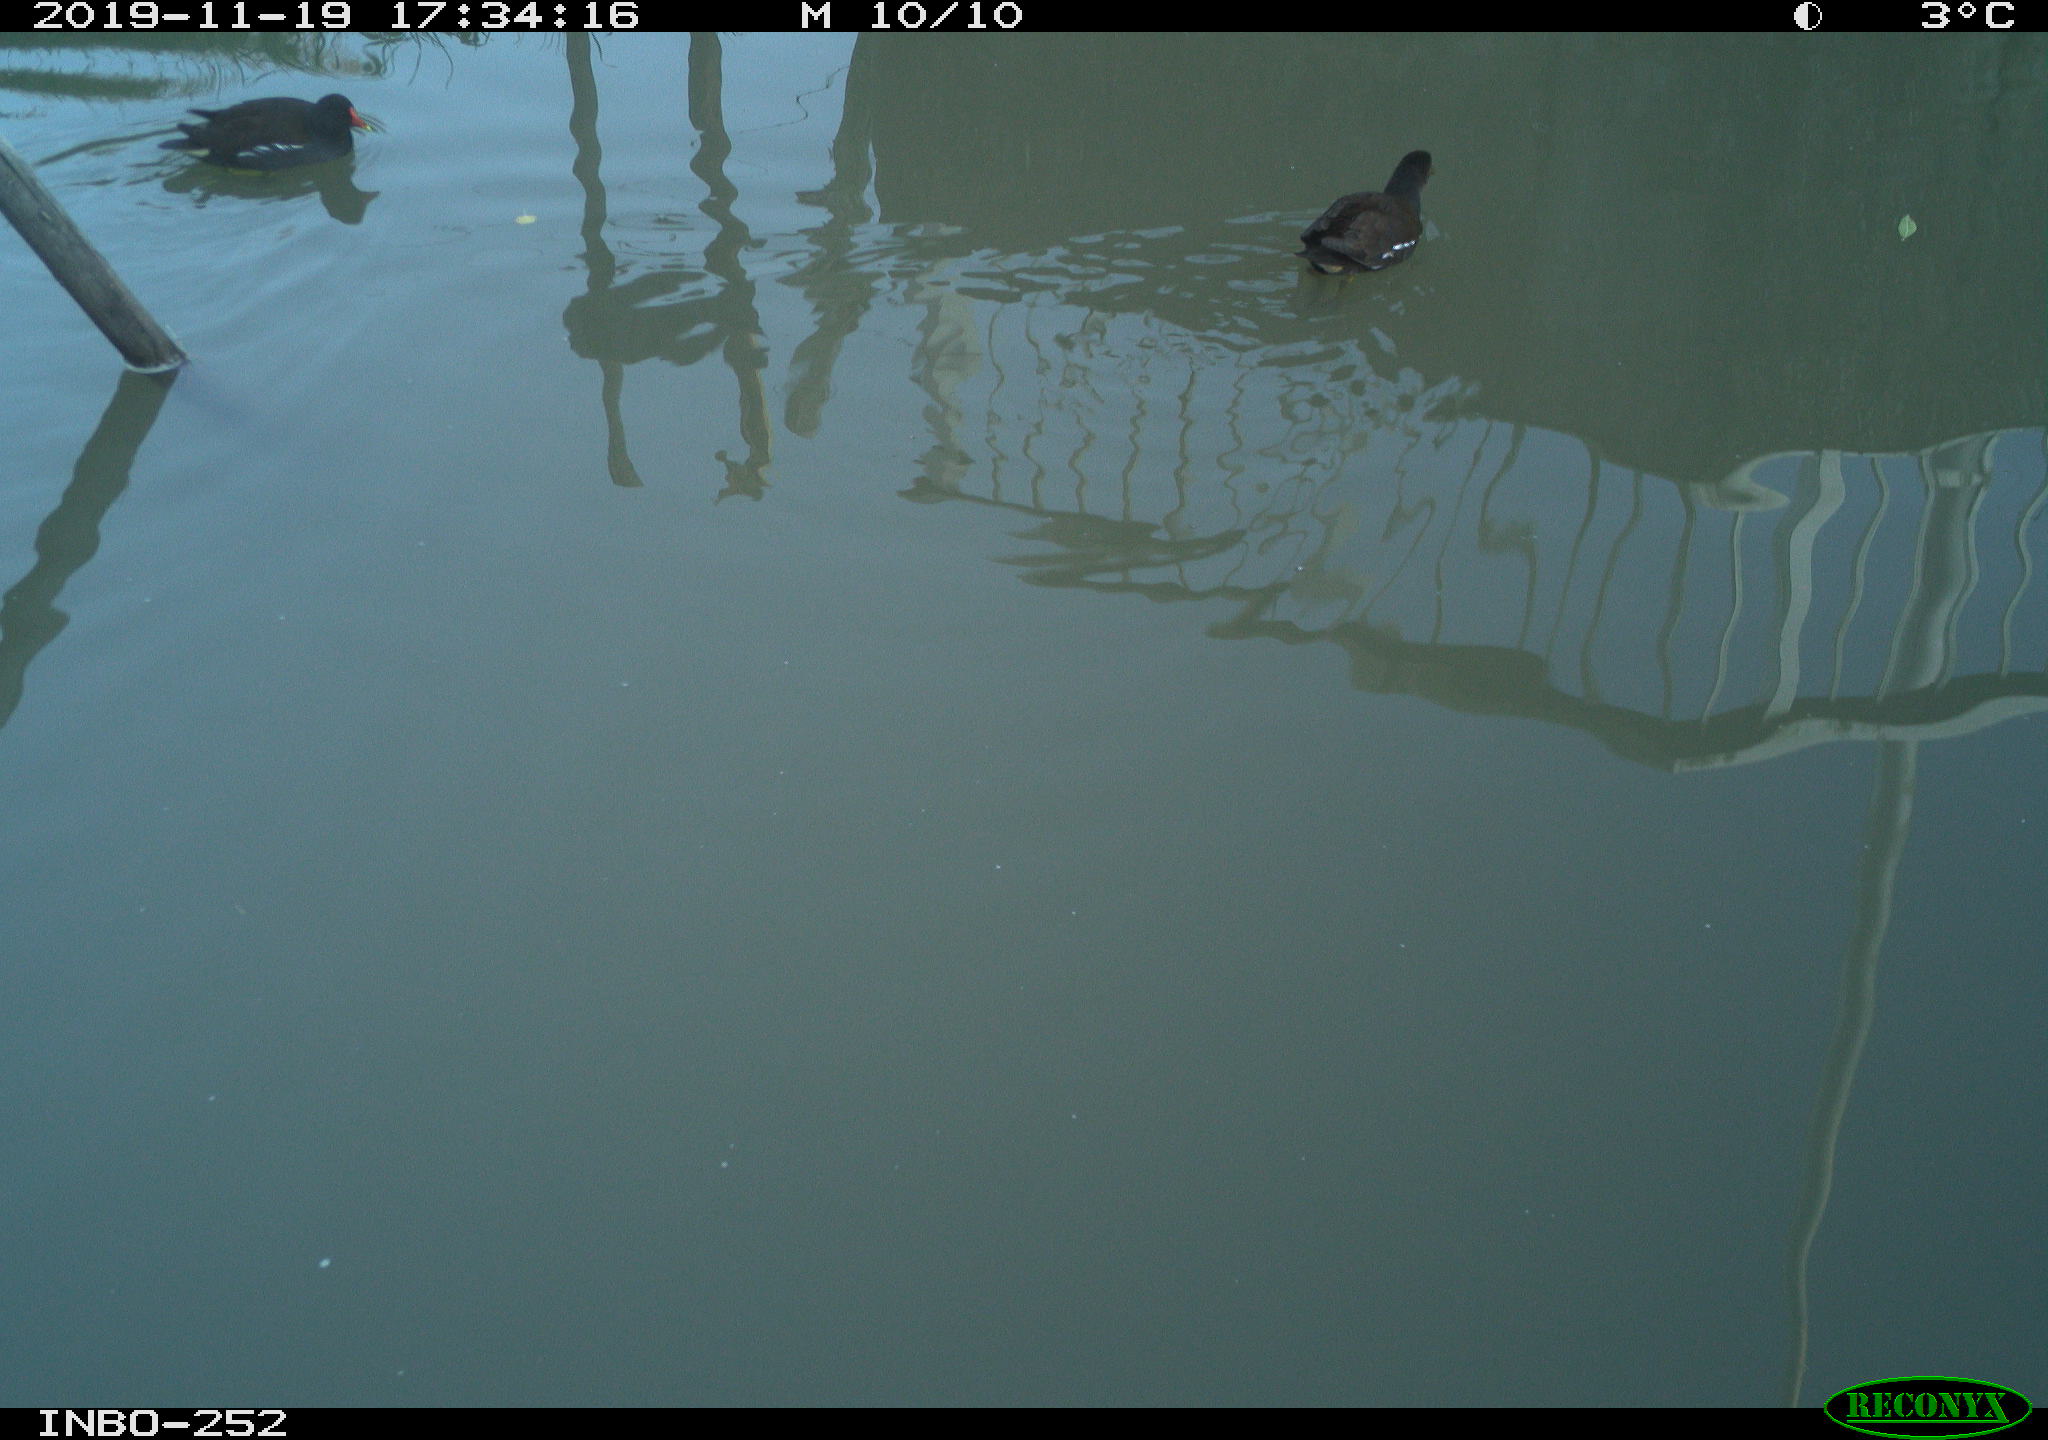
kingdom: Animalia
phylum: Chordata
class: Aves
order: Gruiformes
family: Rallidae
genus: Gallinula
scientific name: Gallinula chloropus
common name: Common moorhen
